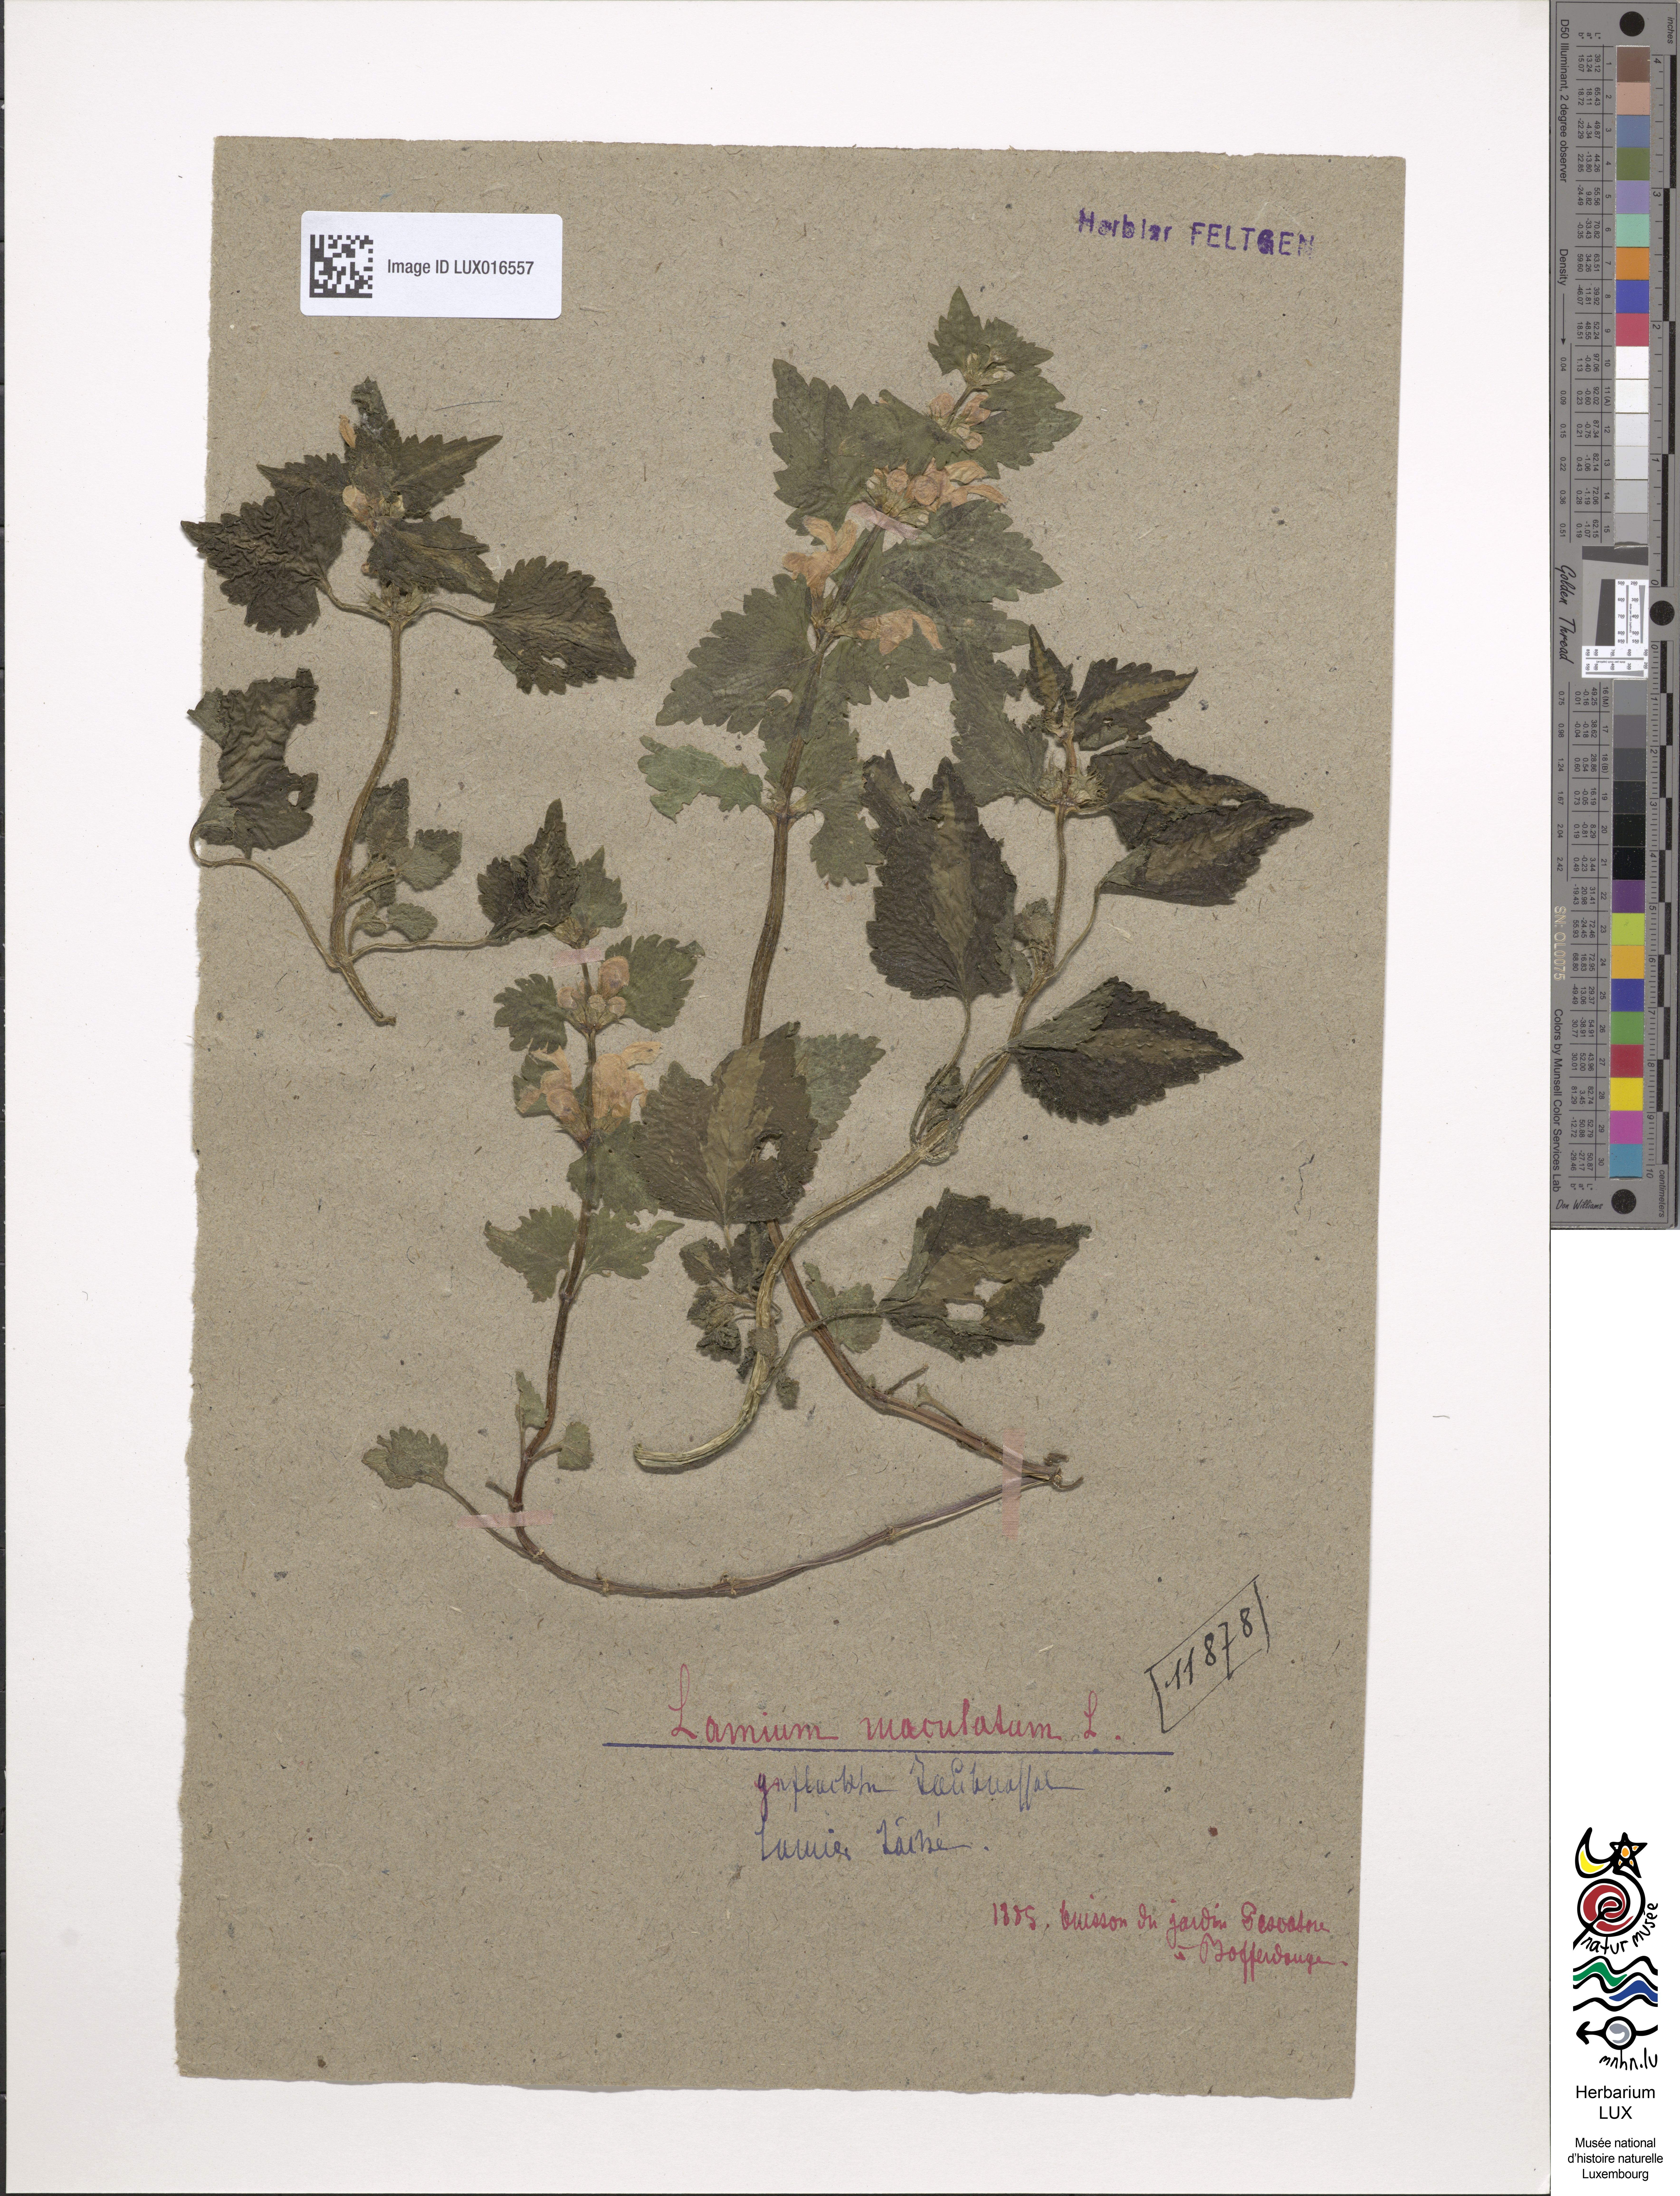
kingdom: Plantae
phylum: Tracheophyta
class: Magnoliopsida
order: Lamiales
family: Lamiaceae
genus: Lamium
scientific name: Lamium maculatum
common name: Spotted dead-nettle
